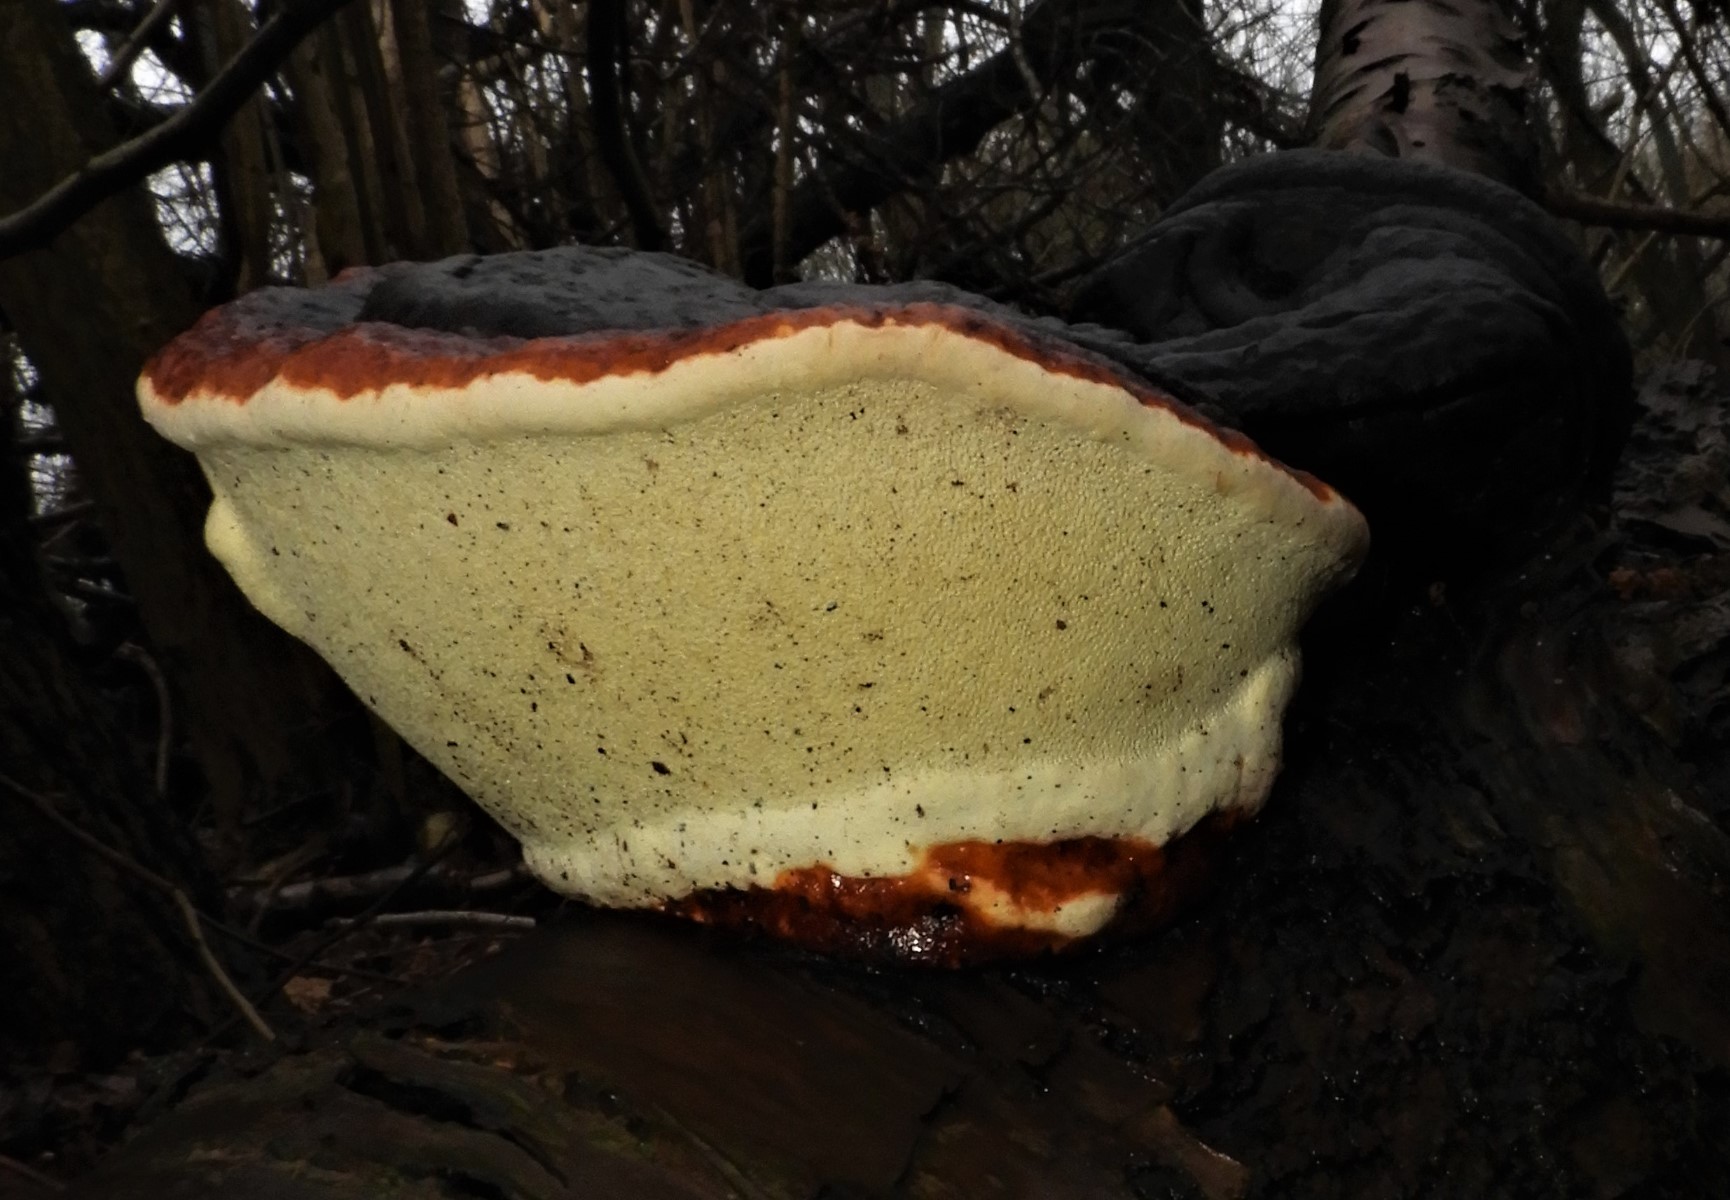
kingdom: Fungi
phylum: Basidiomycota
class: Agaricomycetes
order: Polyporales
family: Fomitopsidaceae
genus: Fomitopsis
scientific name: Fomitopsis pinicola
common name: randbæltet hovporesvamp
